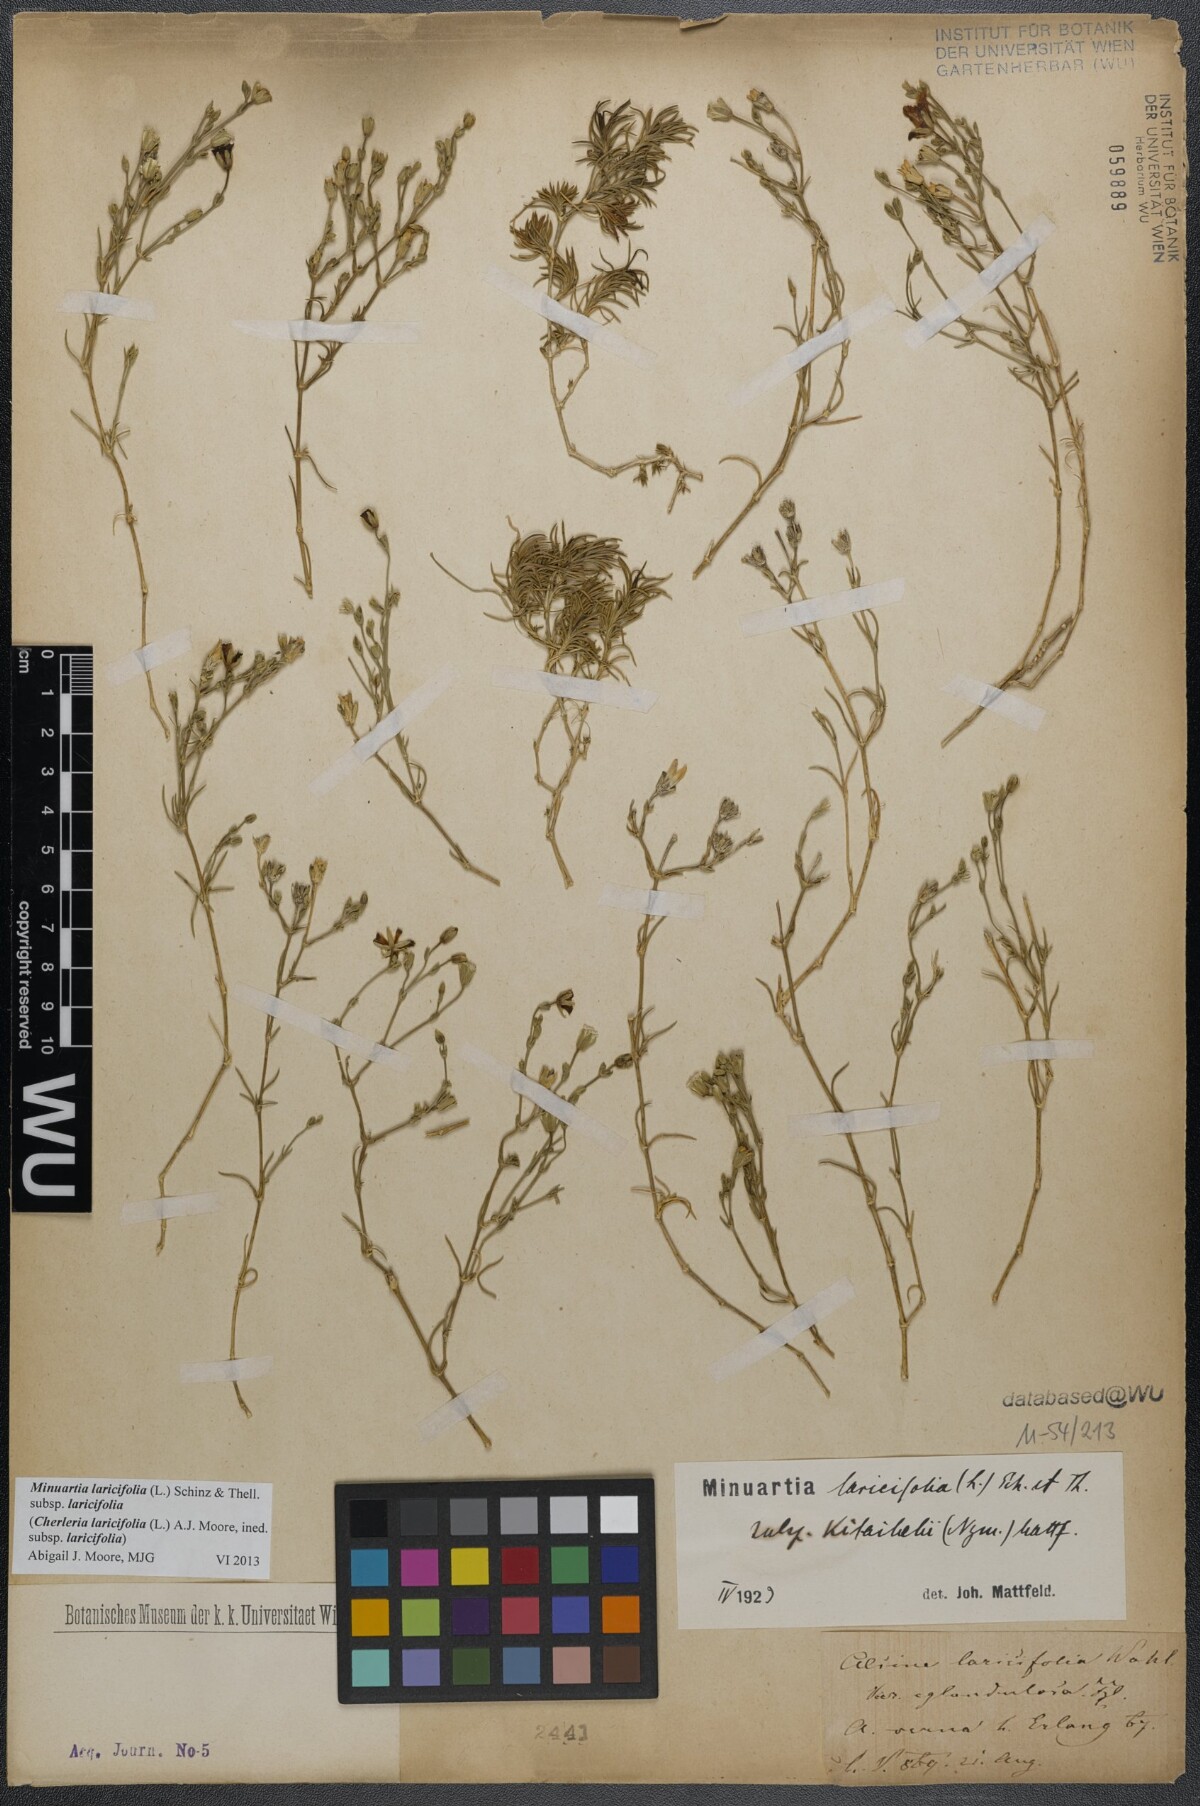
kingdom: Plantae
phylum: Tracheophyta
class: Magnoliopsida
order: Caryophyllales
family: Caryophyllaceae
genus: Cherleria
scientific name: Cherleria laricifolia
